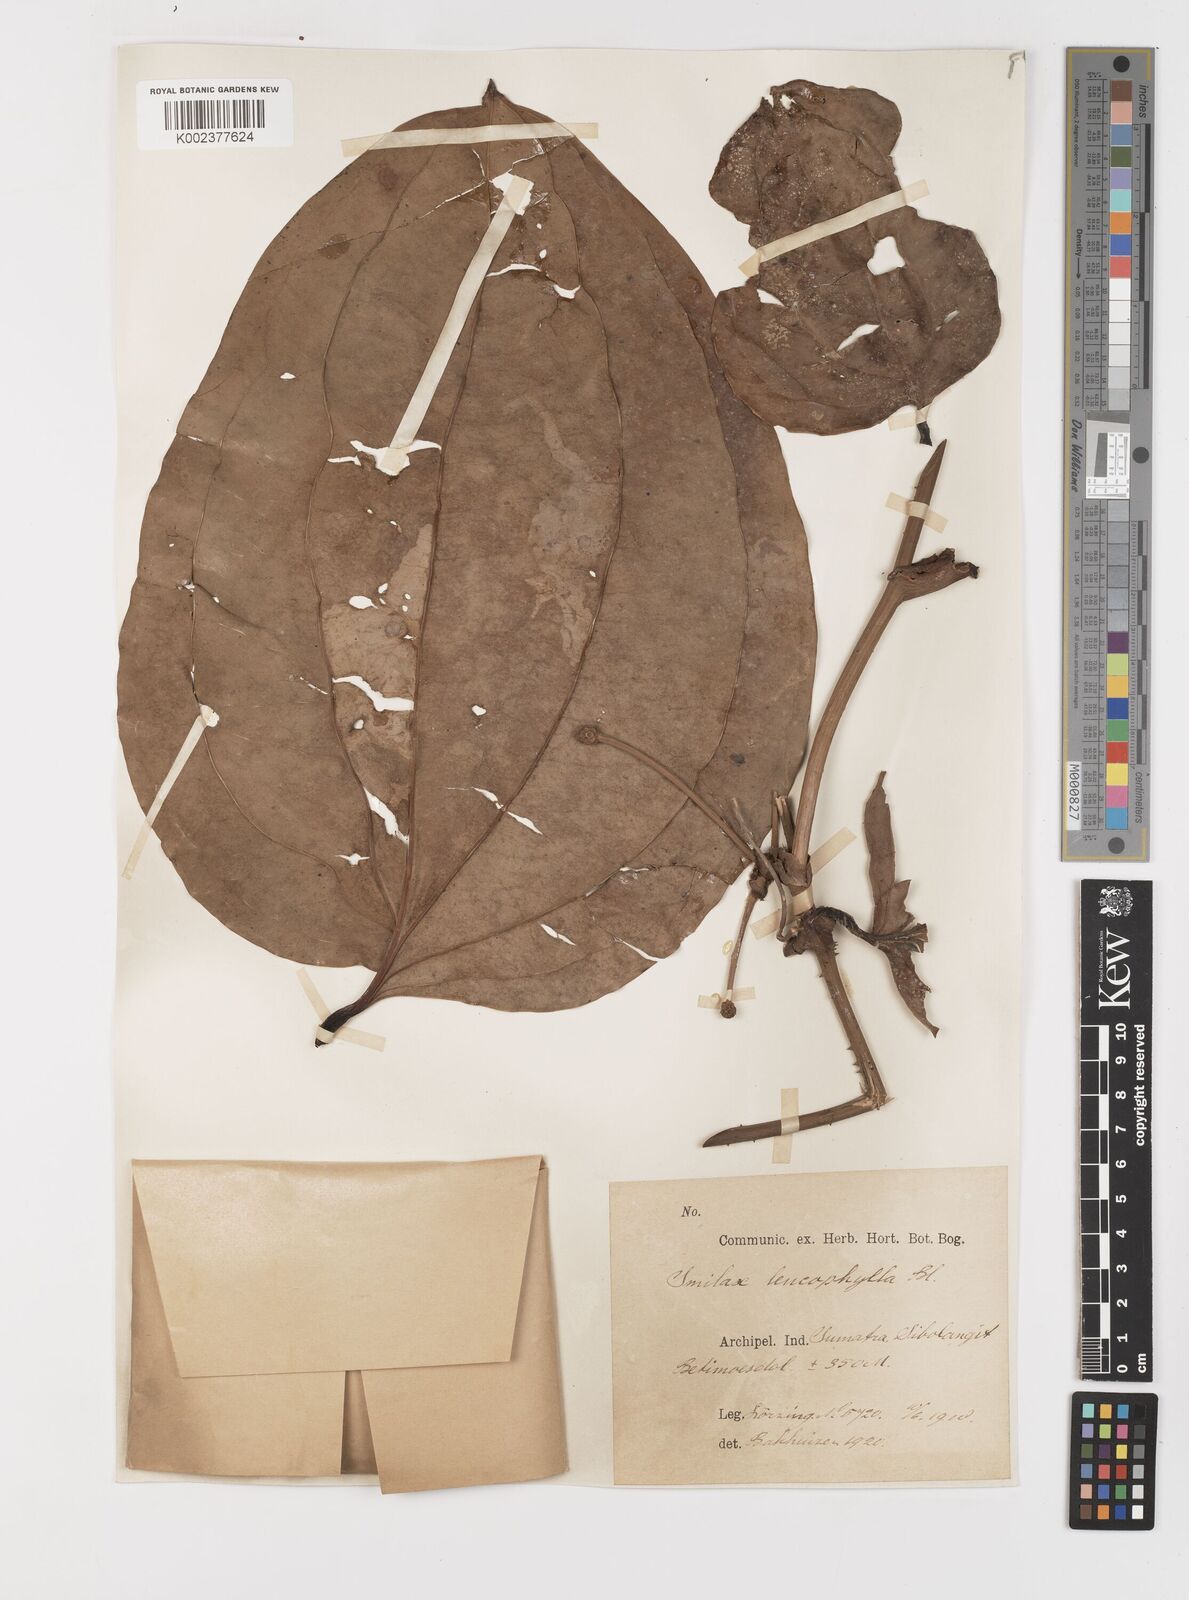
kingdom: Plantae
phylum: Tracheophyta
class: Liliopsida
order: Liliales
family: Smilacaceae
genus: Smilax
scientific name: Smilax leucophylla
